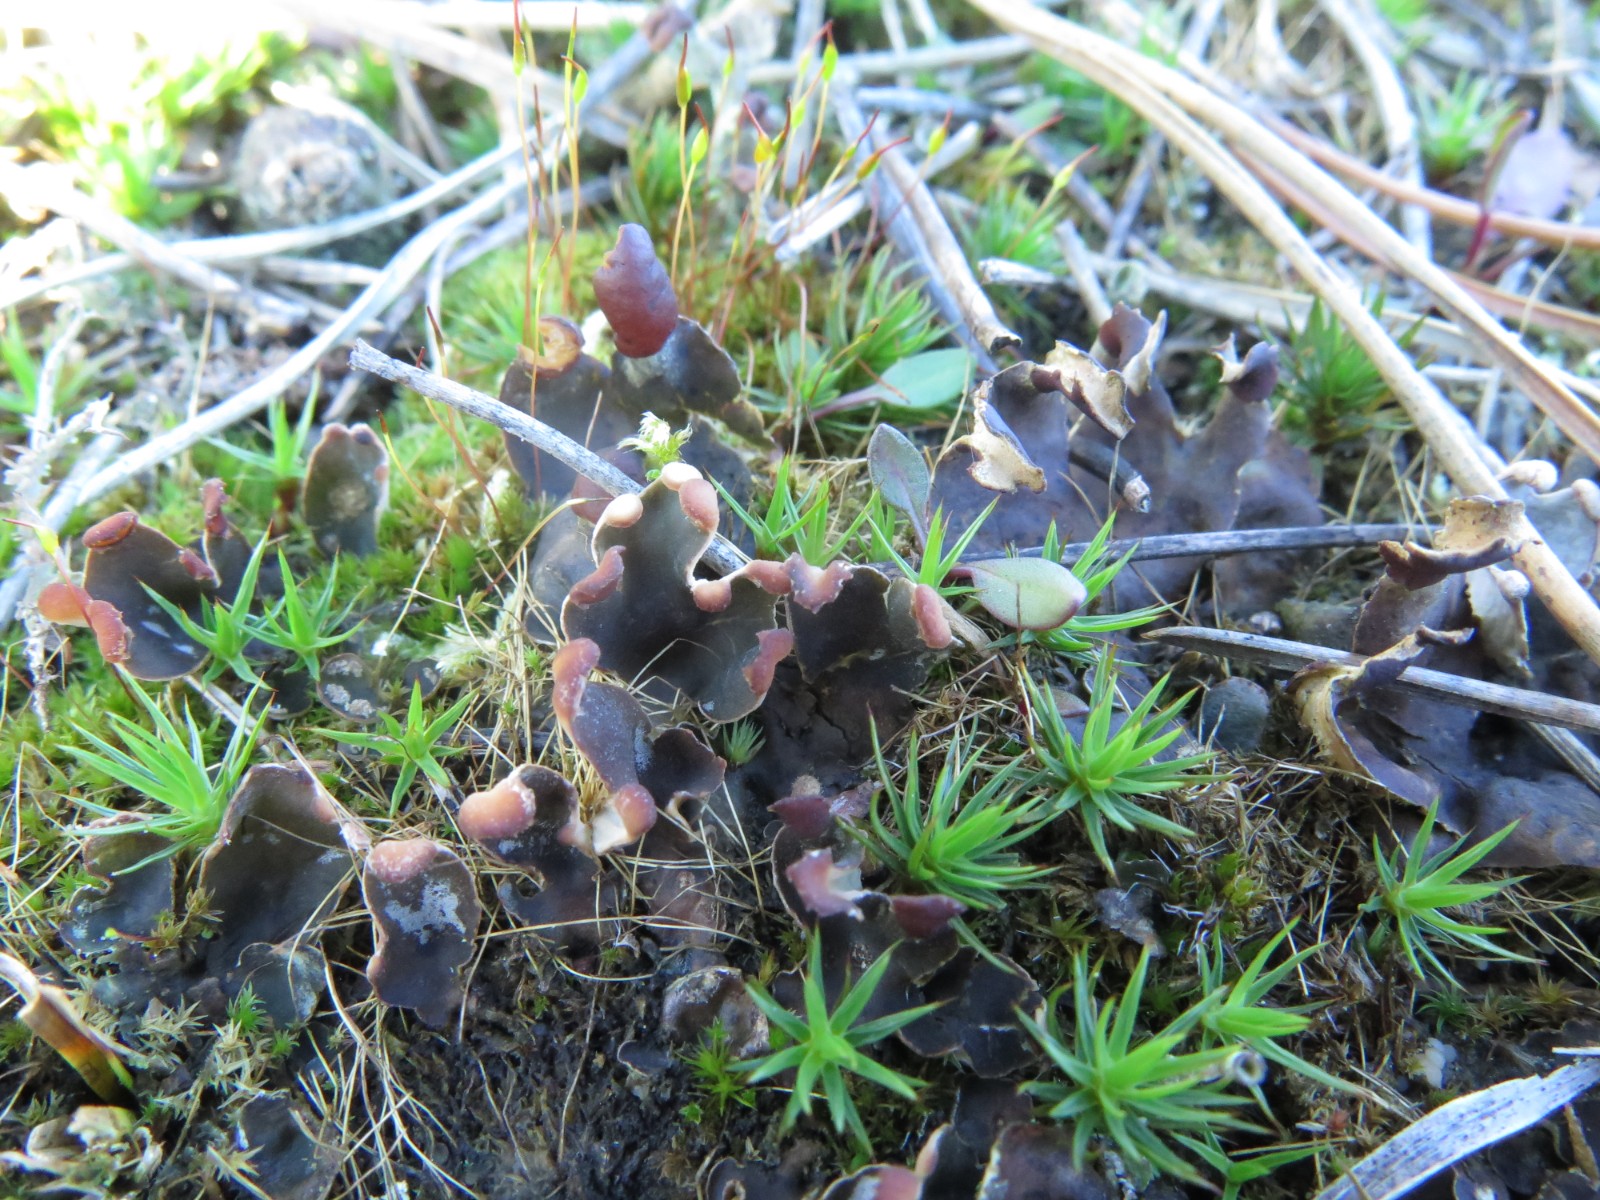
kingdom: Fungi
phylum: Ascomycota
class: Lecanoromycetes
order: Peltigerales
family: Peltigeraceae
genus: Peltigera
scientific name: Peltigera didactyla
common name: liden skjoldlav
